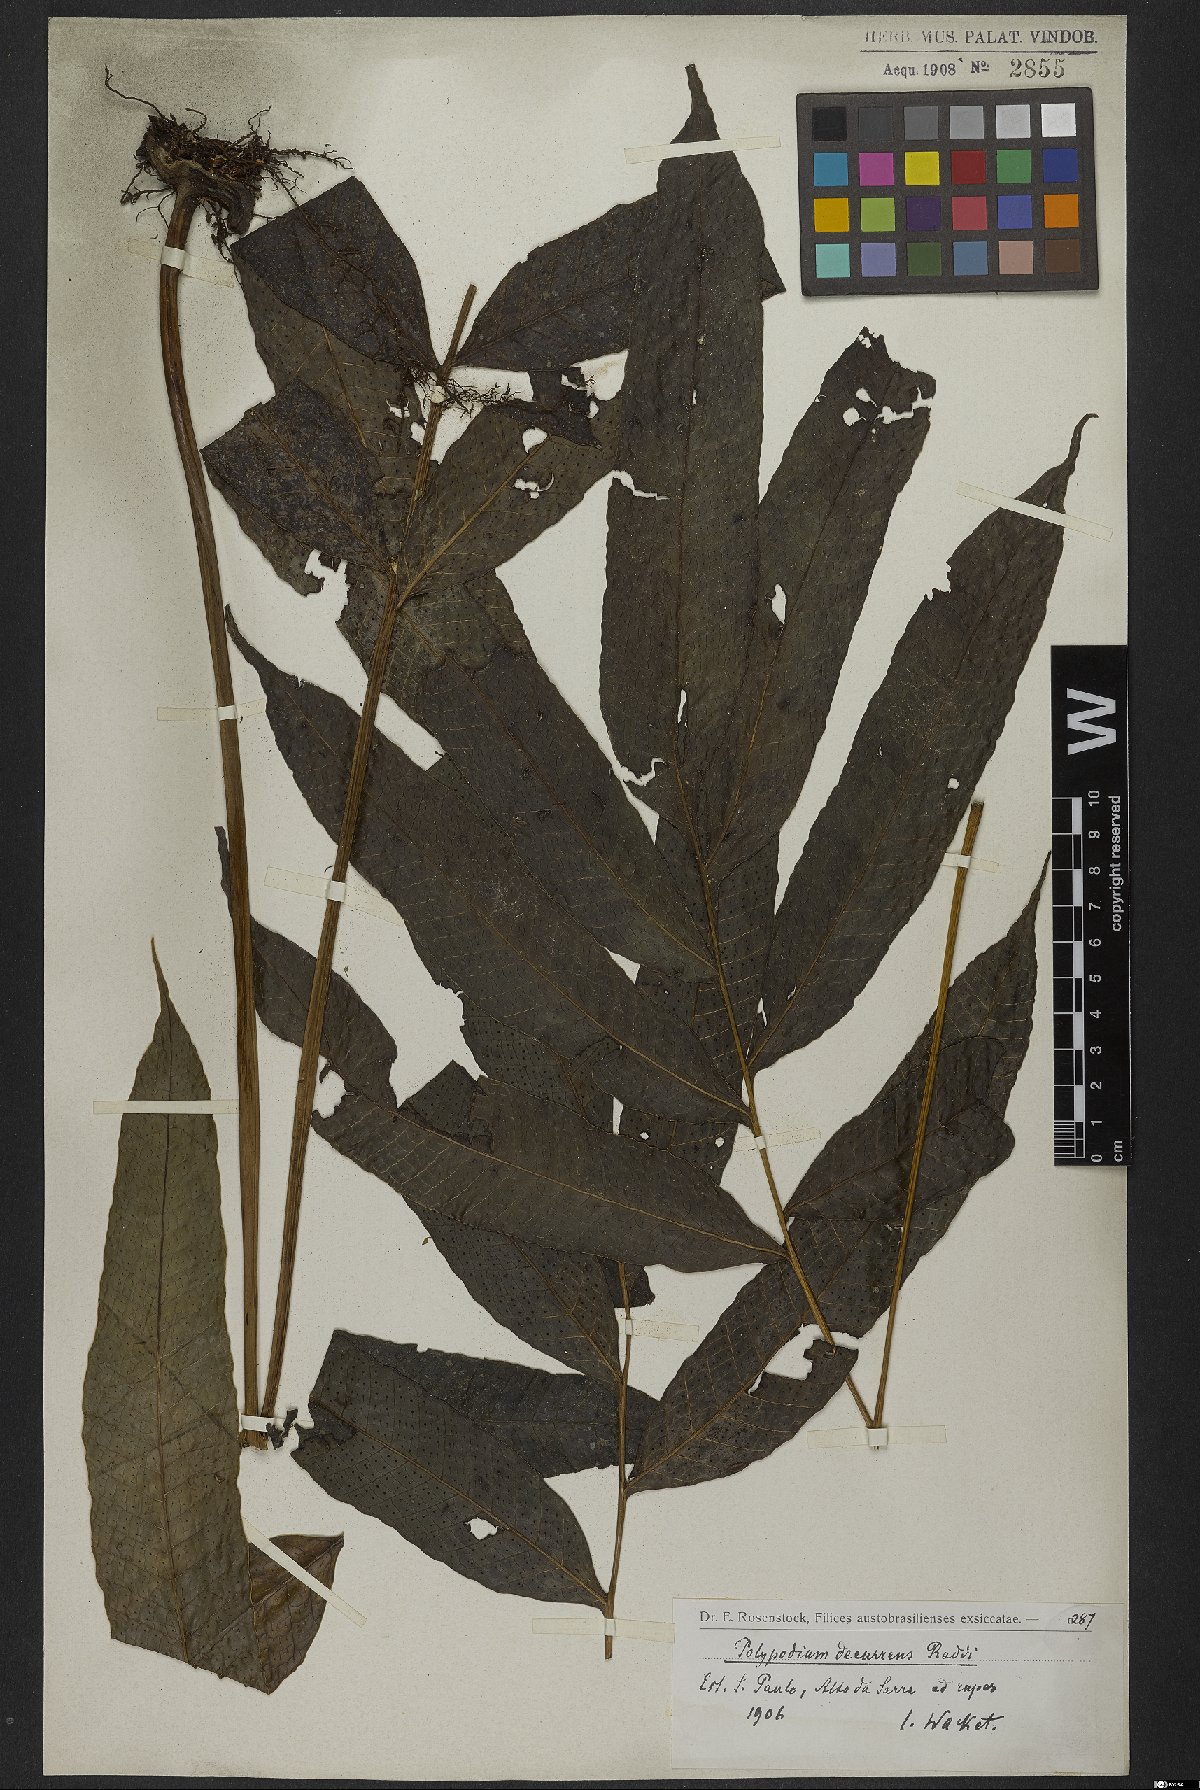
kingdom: Plantae
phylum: Tracheophyta
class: Polypodiopsida
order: Polypodiales
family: Polypodiaceae
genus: Campyloneurum
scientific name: Campyloneurum decurrens
